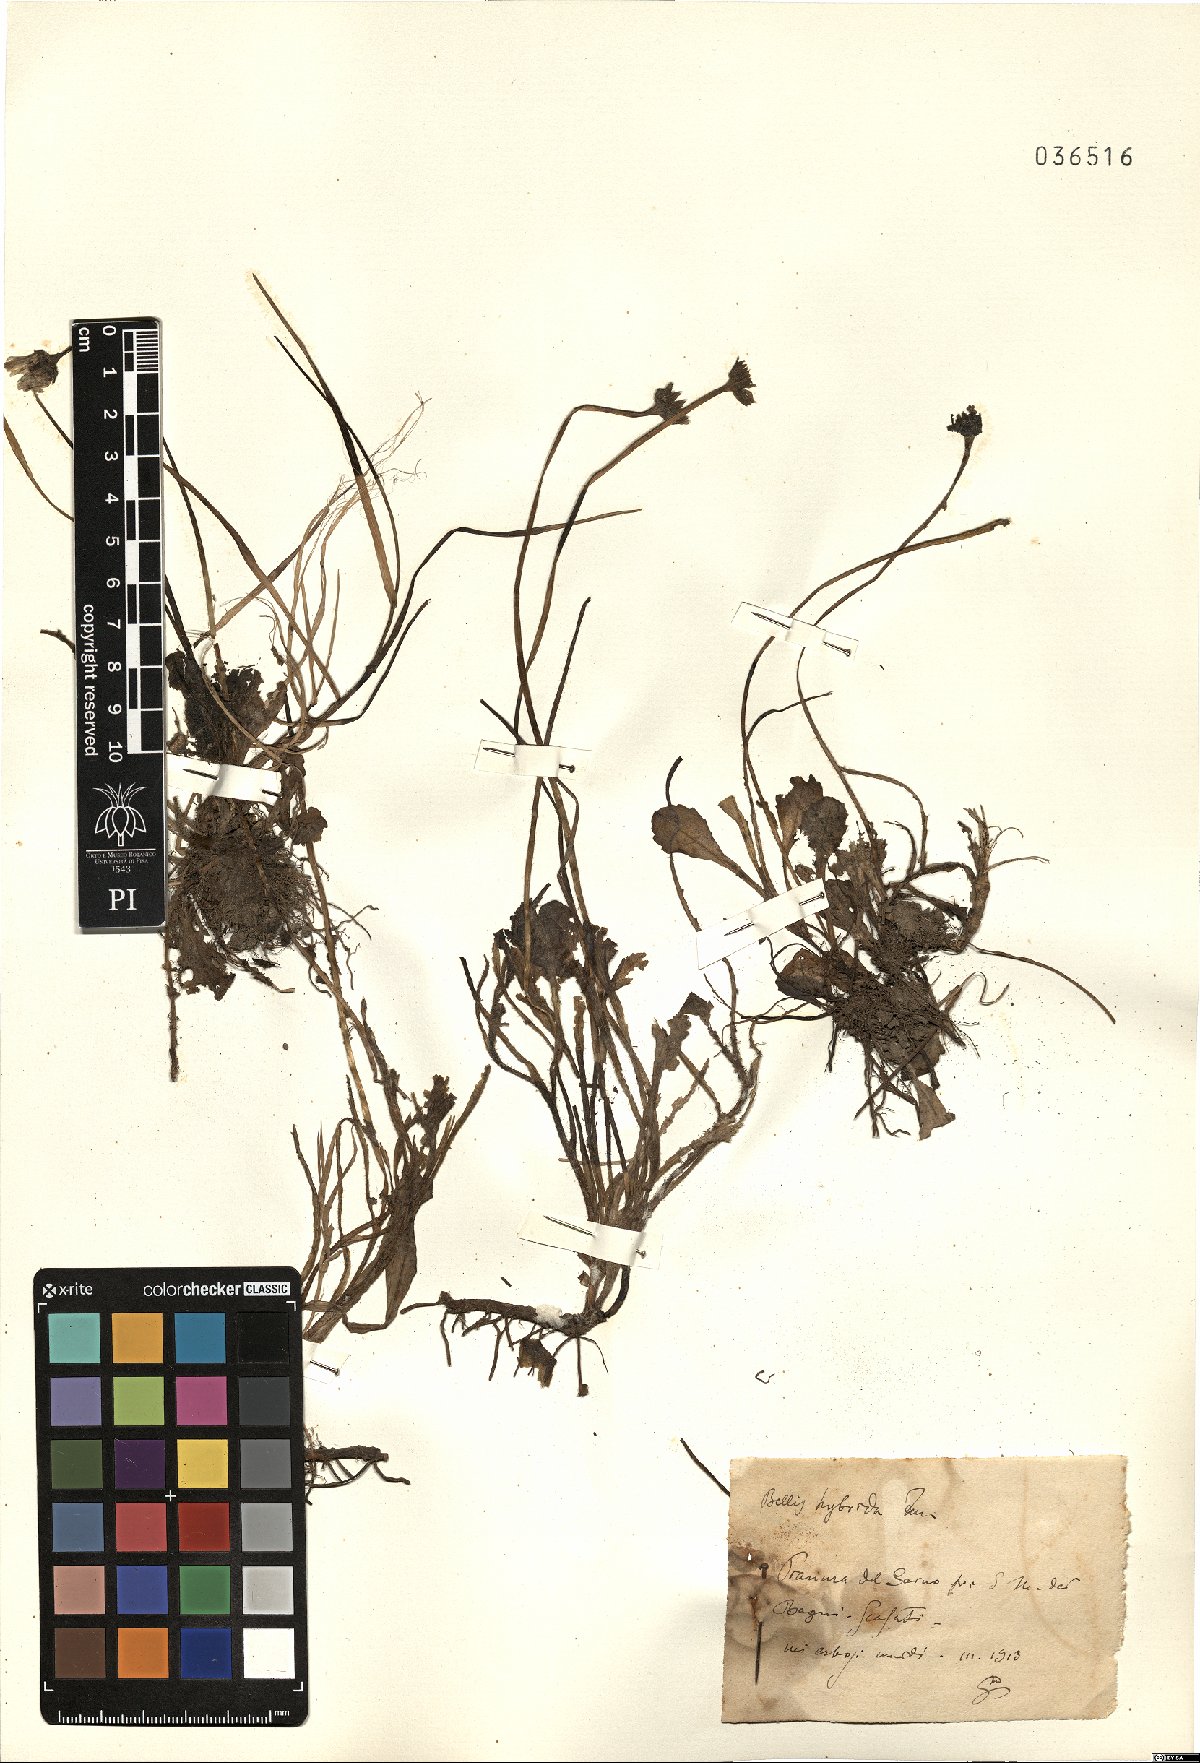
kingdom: Plantae
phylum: Tracheophyta
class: Magnoliopsida
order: Asterales
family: Asteraceae
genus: Bellis
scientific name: Bellis perennis
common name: Lawndaisy
